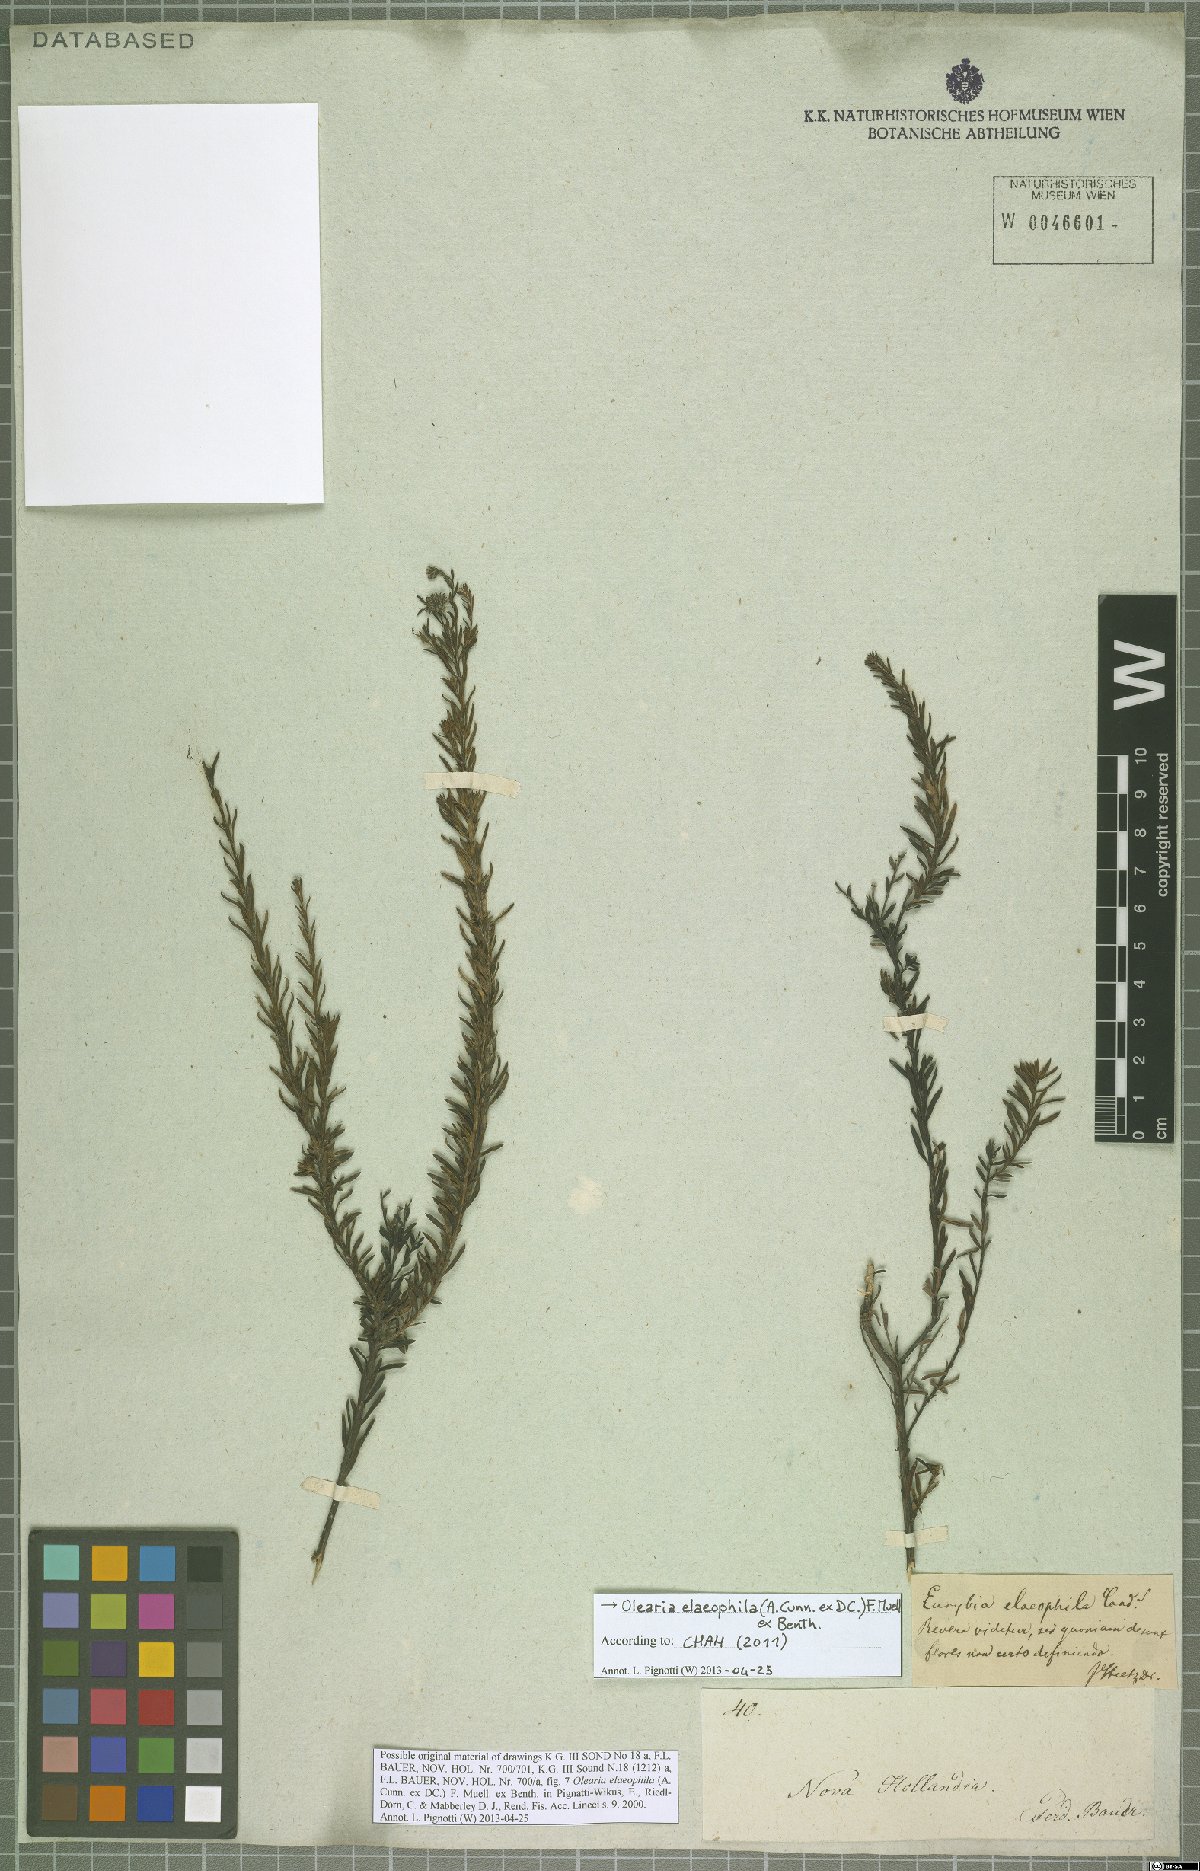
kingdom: Plantae
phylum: Tracheophyta
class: Magnoliopsida
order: Asterales
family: Asteraceae
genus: Olearia
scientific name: Olearia elaeophila
